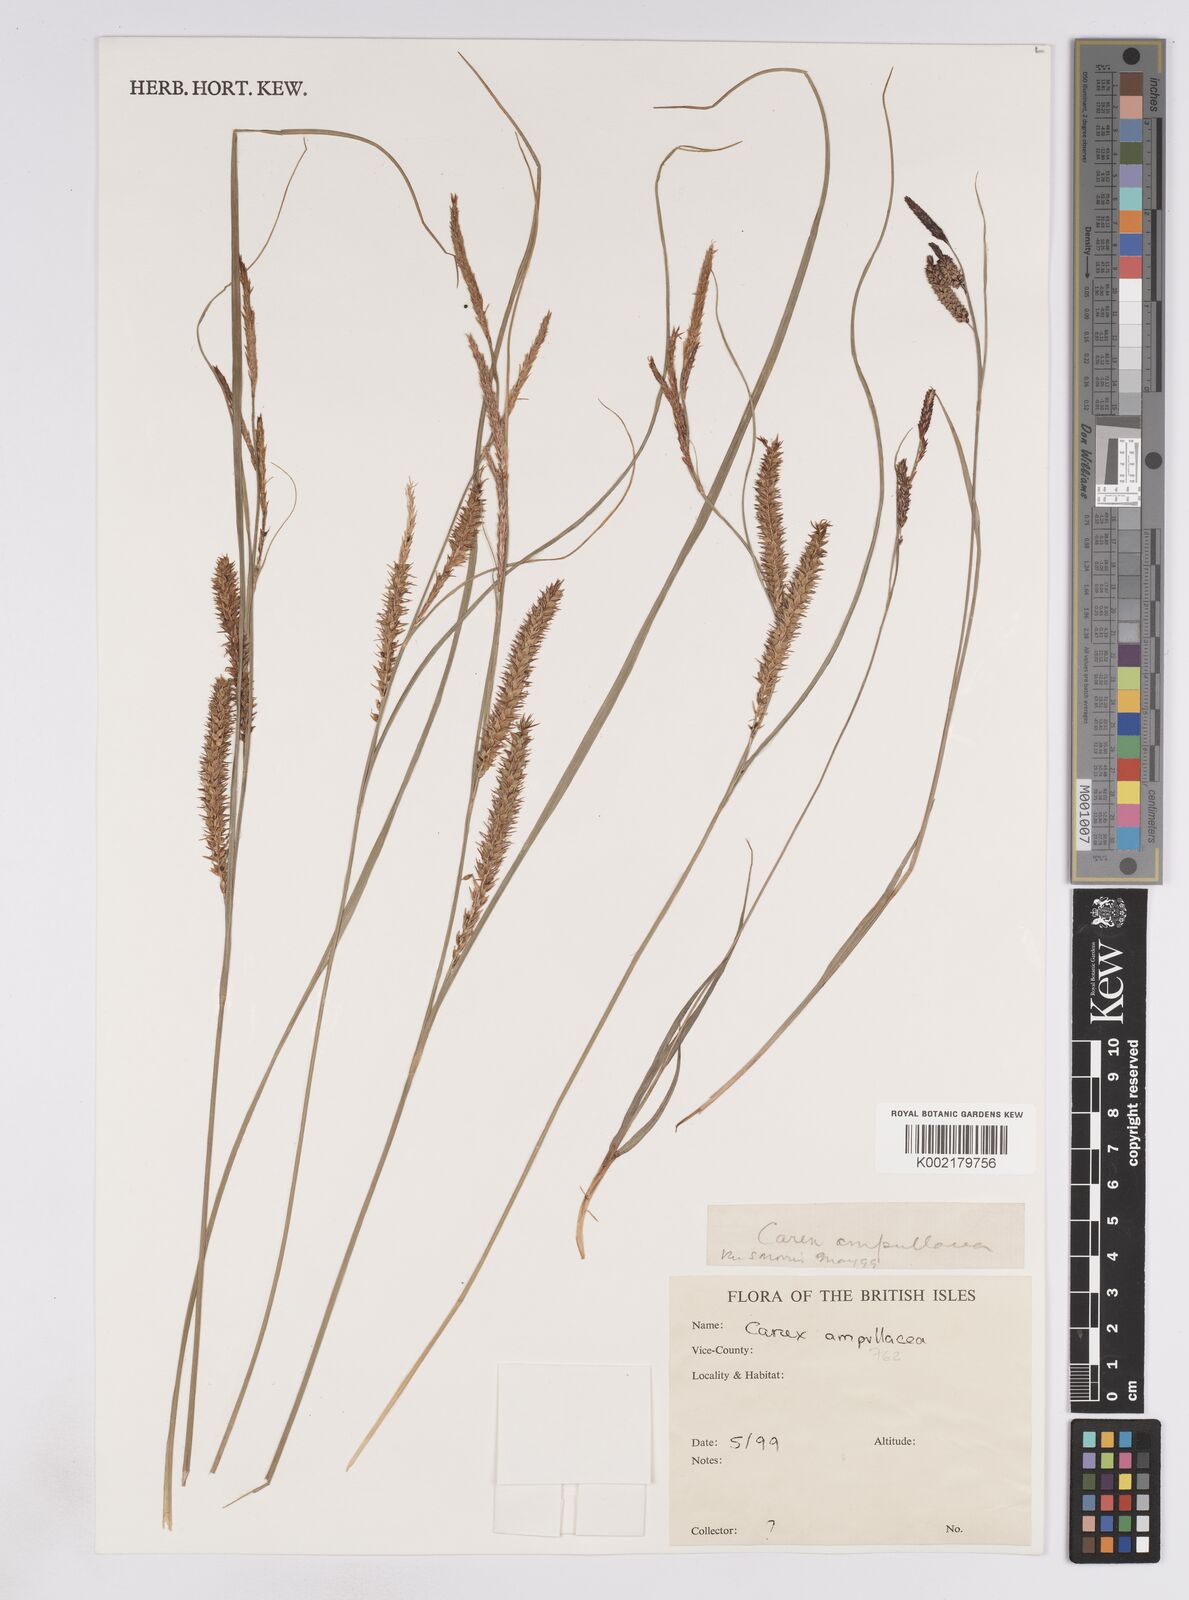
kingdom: Plantae
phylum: Tracheophyta
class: Liliopsida
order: Poales
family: Cyperaceae
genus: Carex
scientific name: Carex rostrata
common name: Bottle sedge
